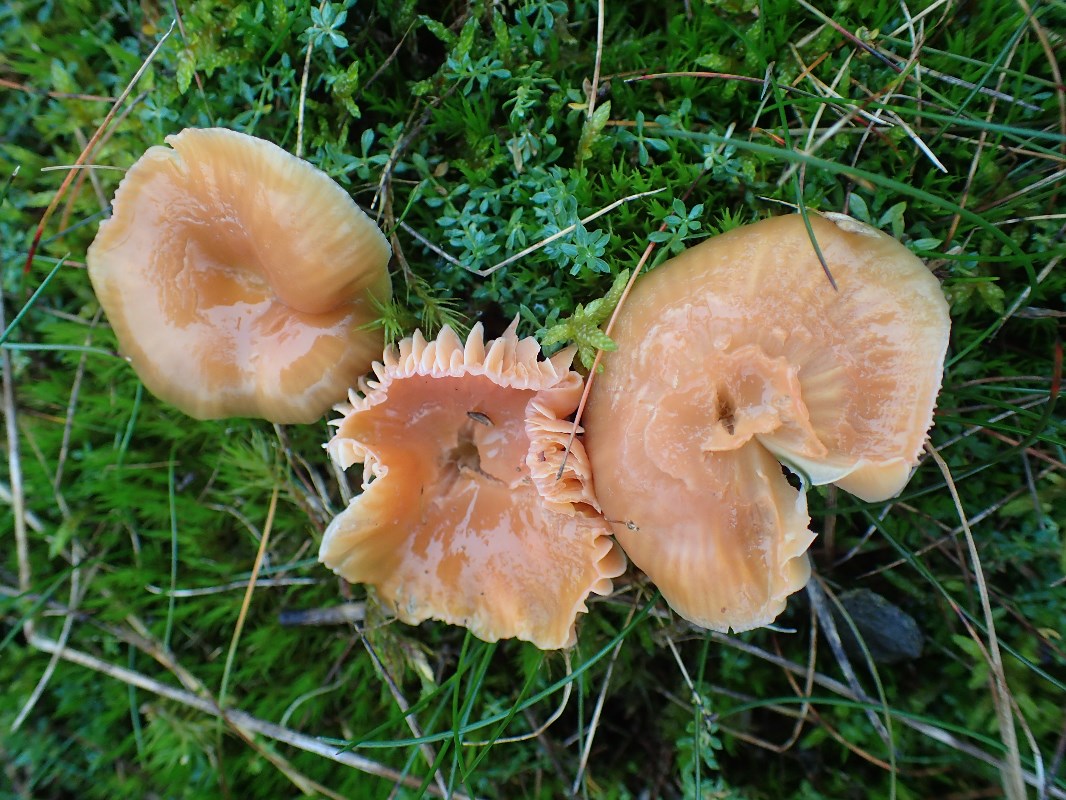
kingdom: Fungi
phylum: Basidiomycota
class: Agaricomycetes
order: Agaricales
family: Hygrophoraceae
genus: Gliophorus
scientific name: Gliophorus laetus
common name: brusk-vokshat
